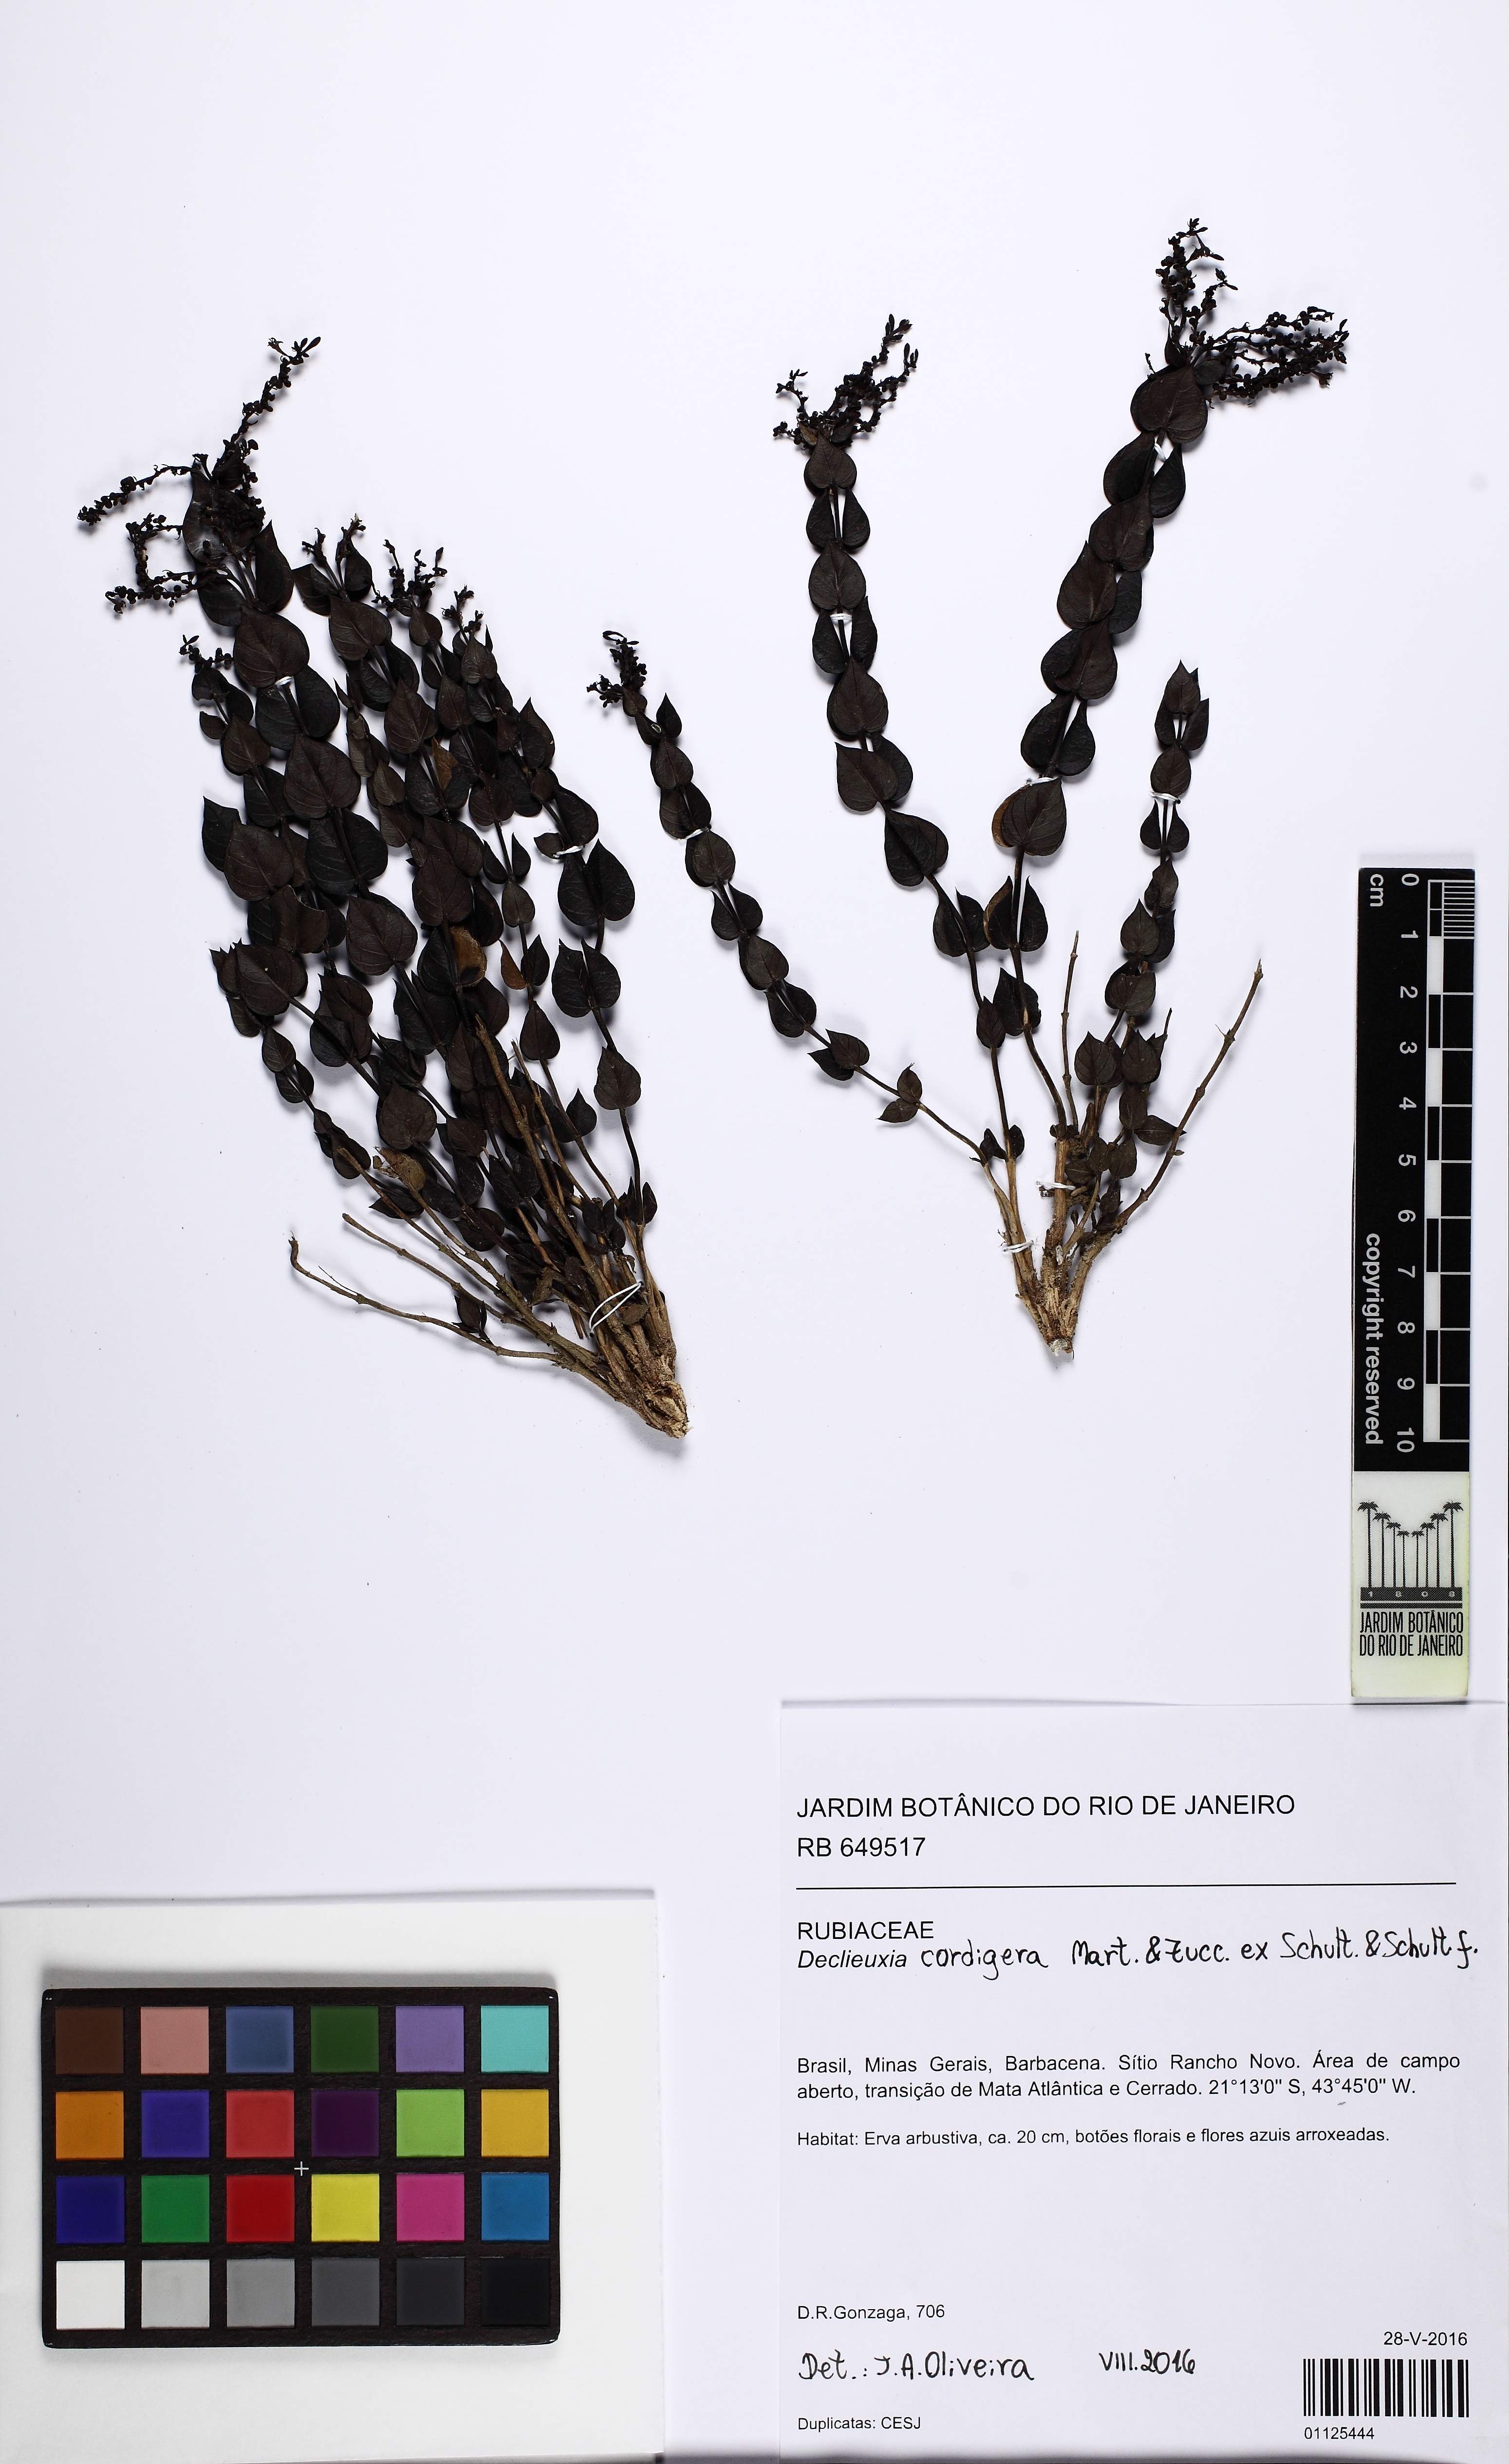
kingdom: Plantae
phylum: Tracheophyta
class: Magnoliopsida
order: Gentianales
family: Rubiaceae
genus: Declieuxia
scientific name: Declieuxia cordigera
